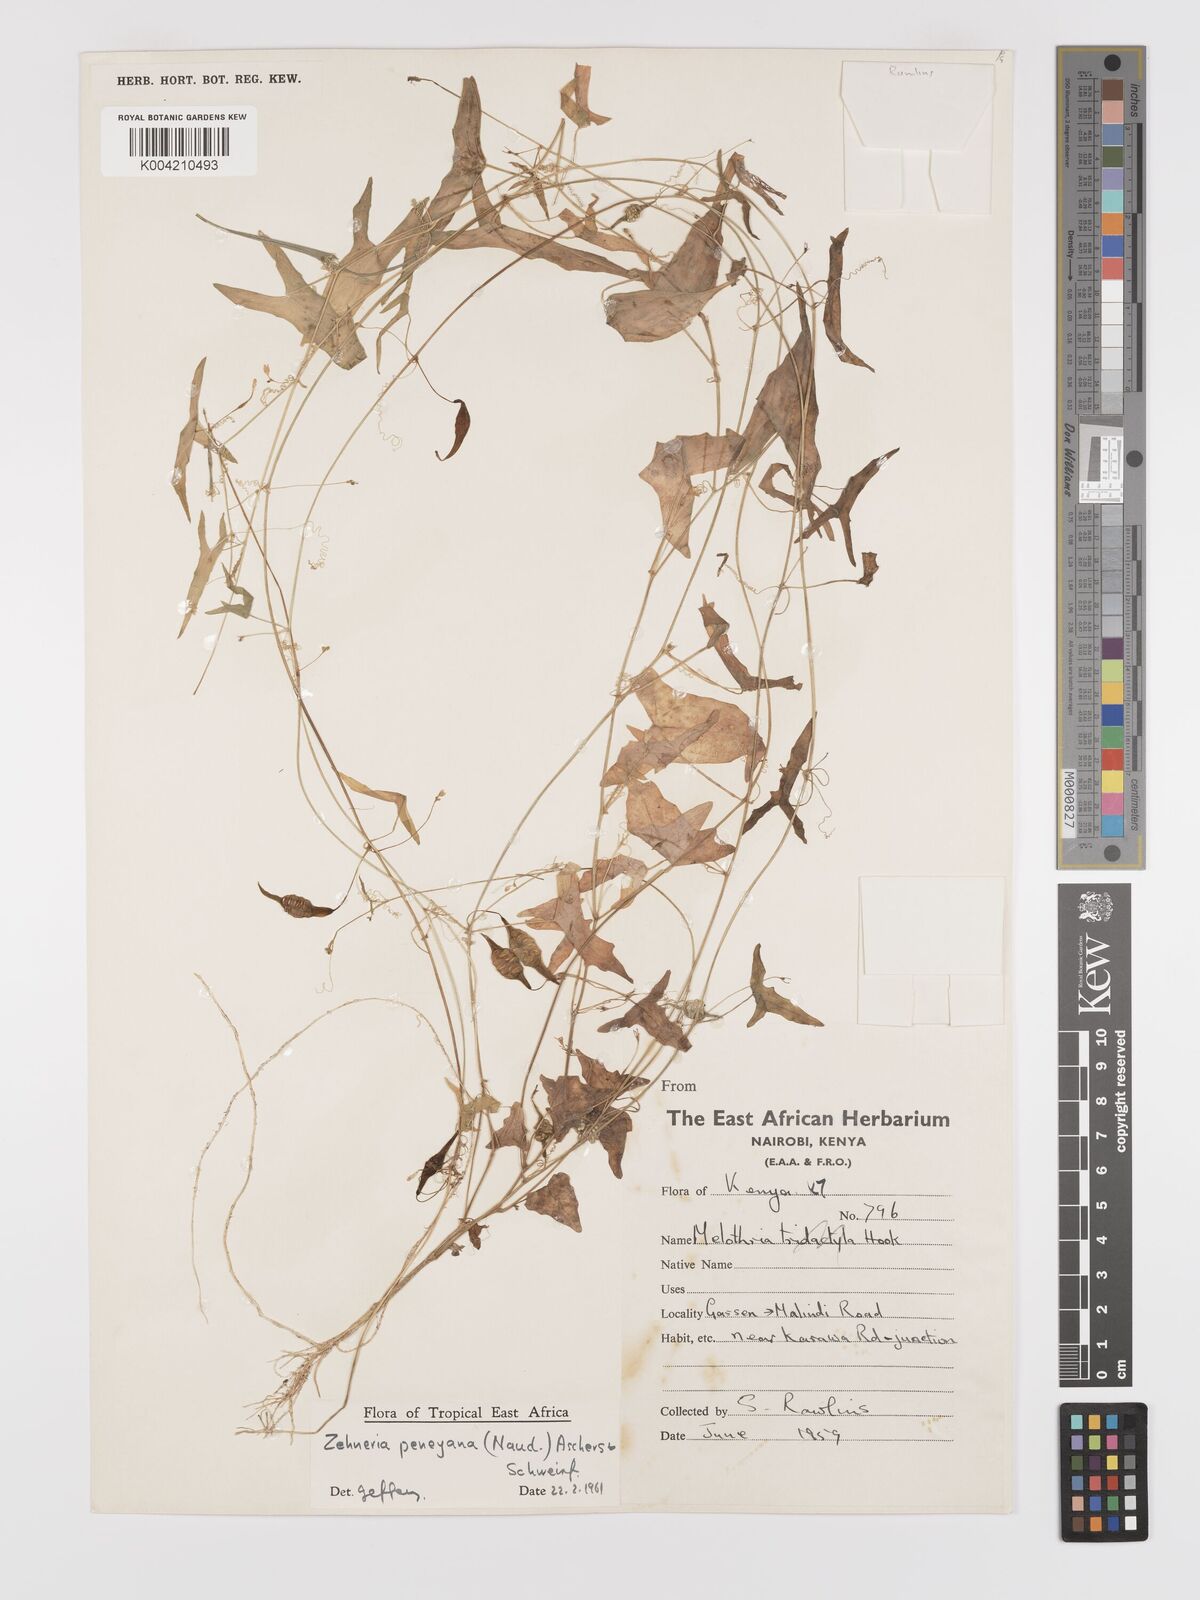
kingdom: Plantae
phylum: Tracheophyta
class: Magnoliopsida
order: Cucurbitales
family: Cucurbitaceae
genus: Zehneria
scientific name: Zehneria peneyana
